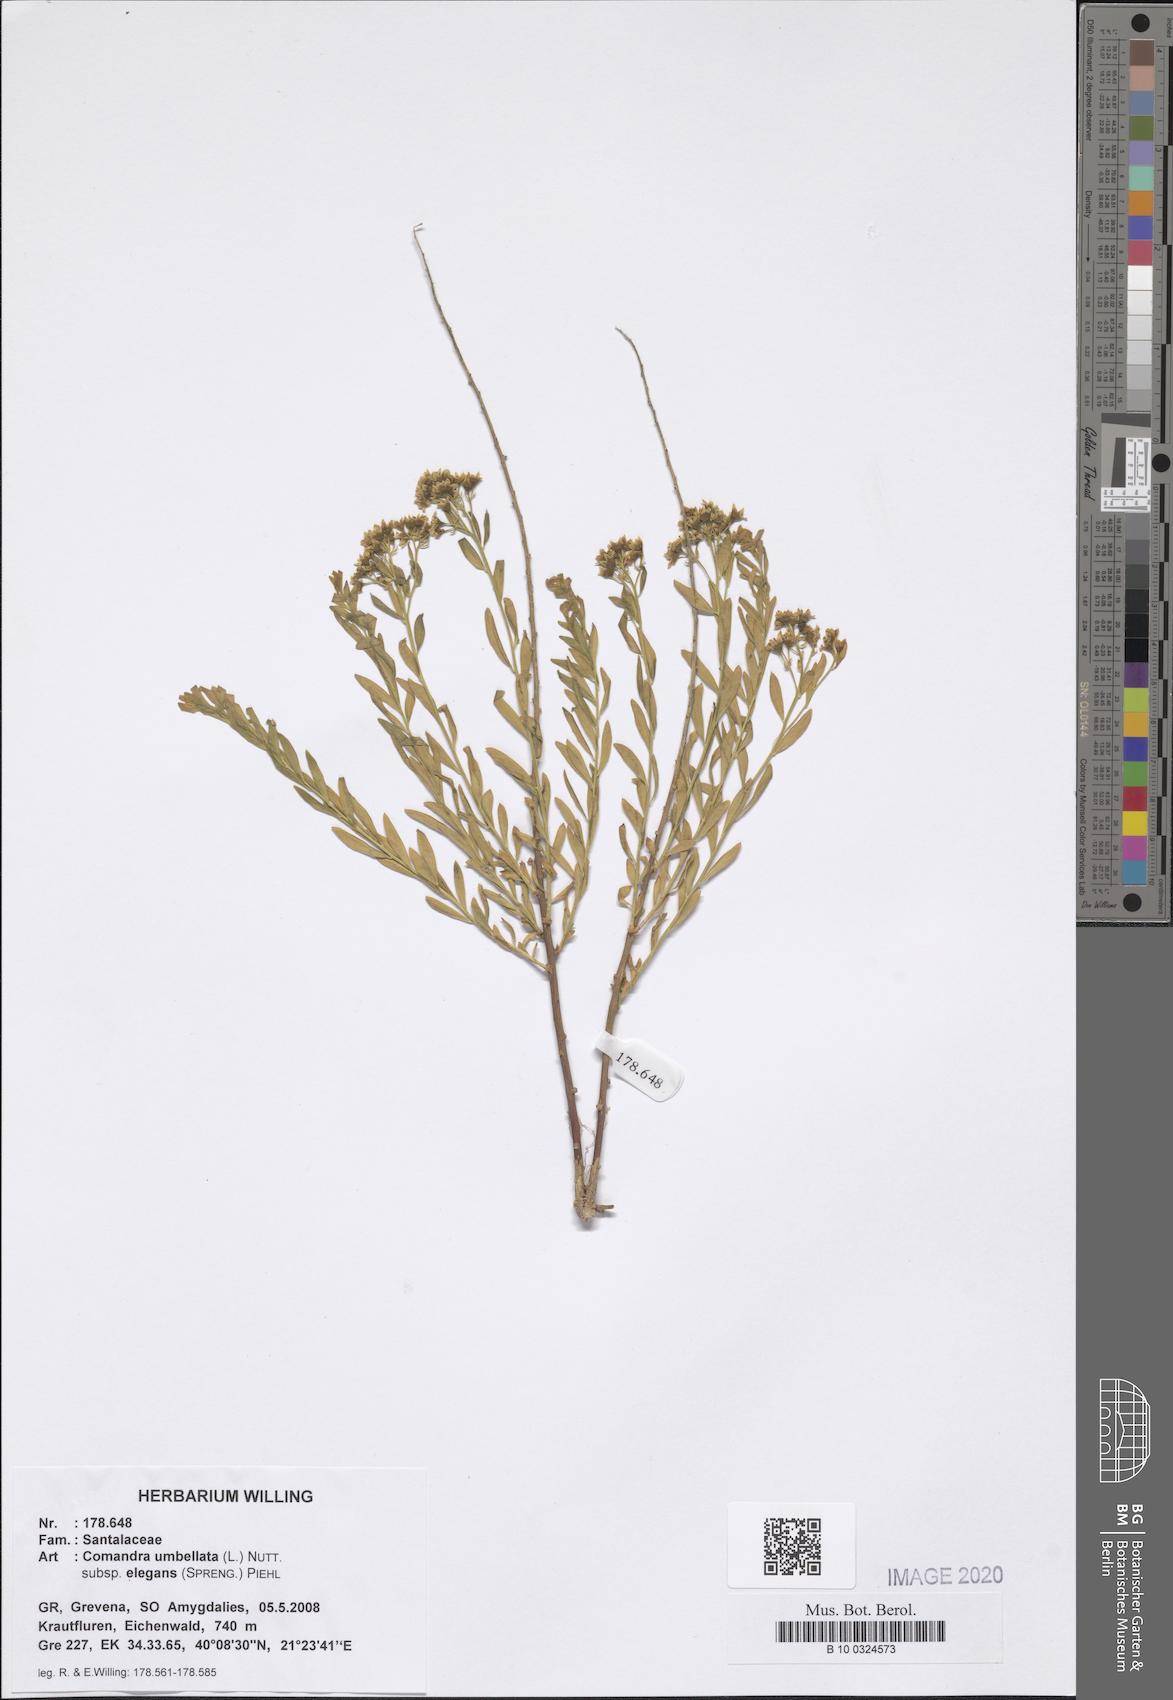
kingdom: Plantae
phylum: Tracheophyta
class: Magnoliopsida
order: Santalales
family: Comandraceae
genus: Comandra
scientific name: Comandra umbellata
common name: Bastard toadflax
